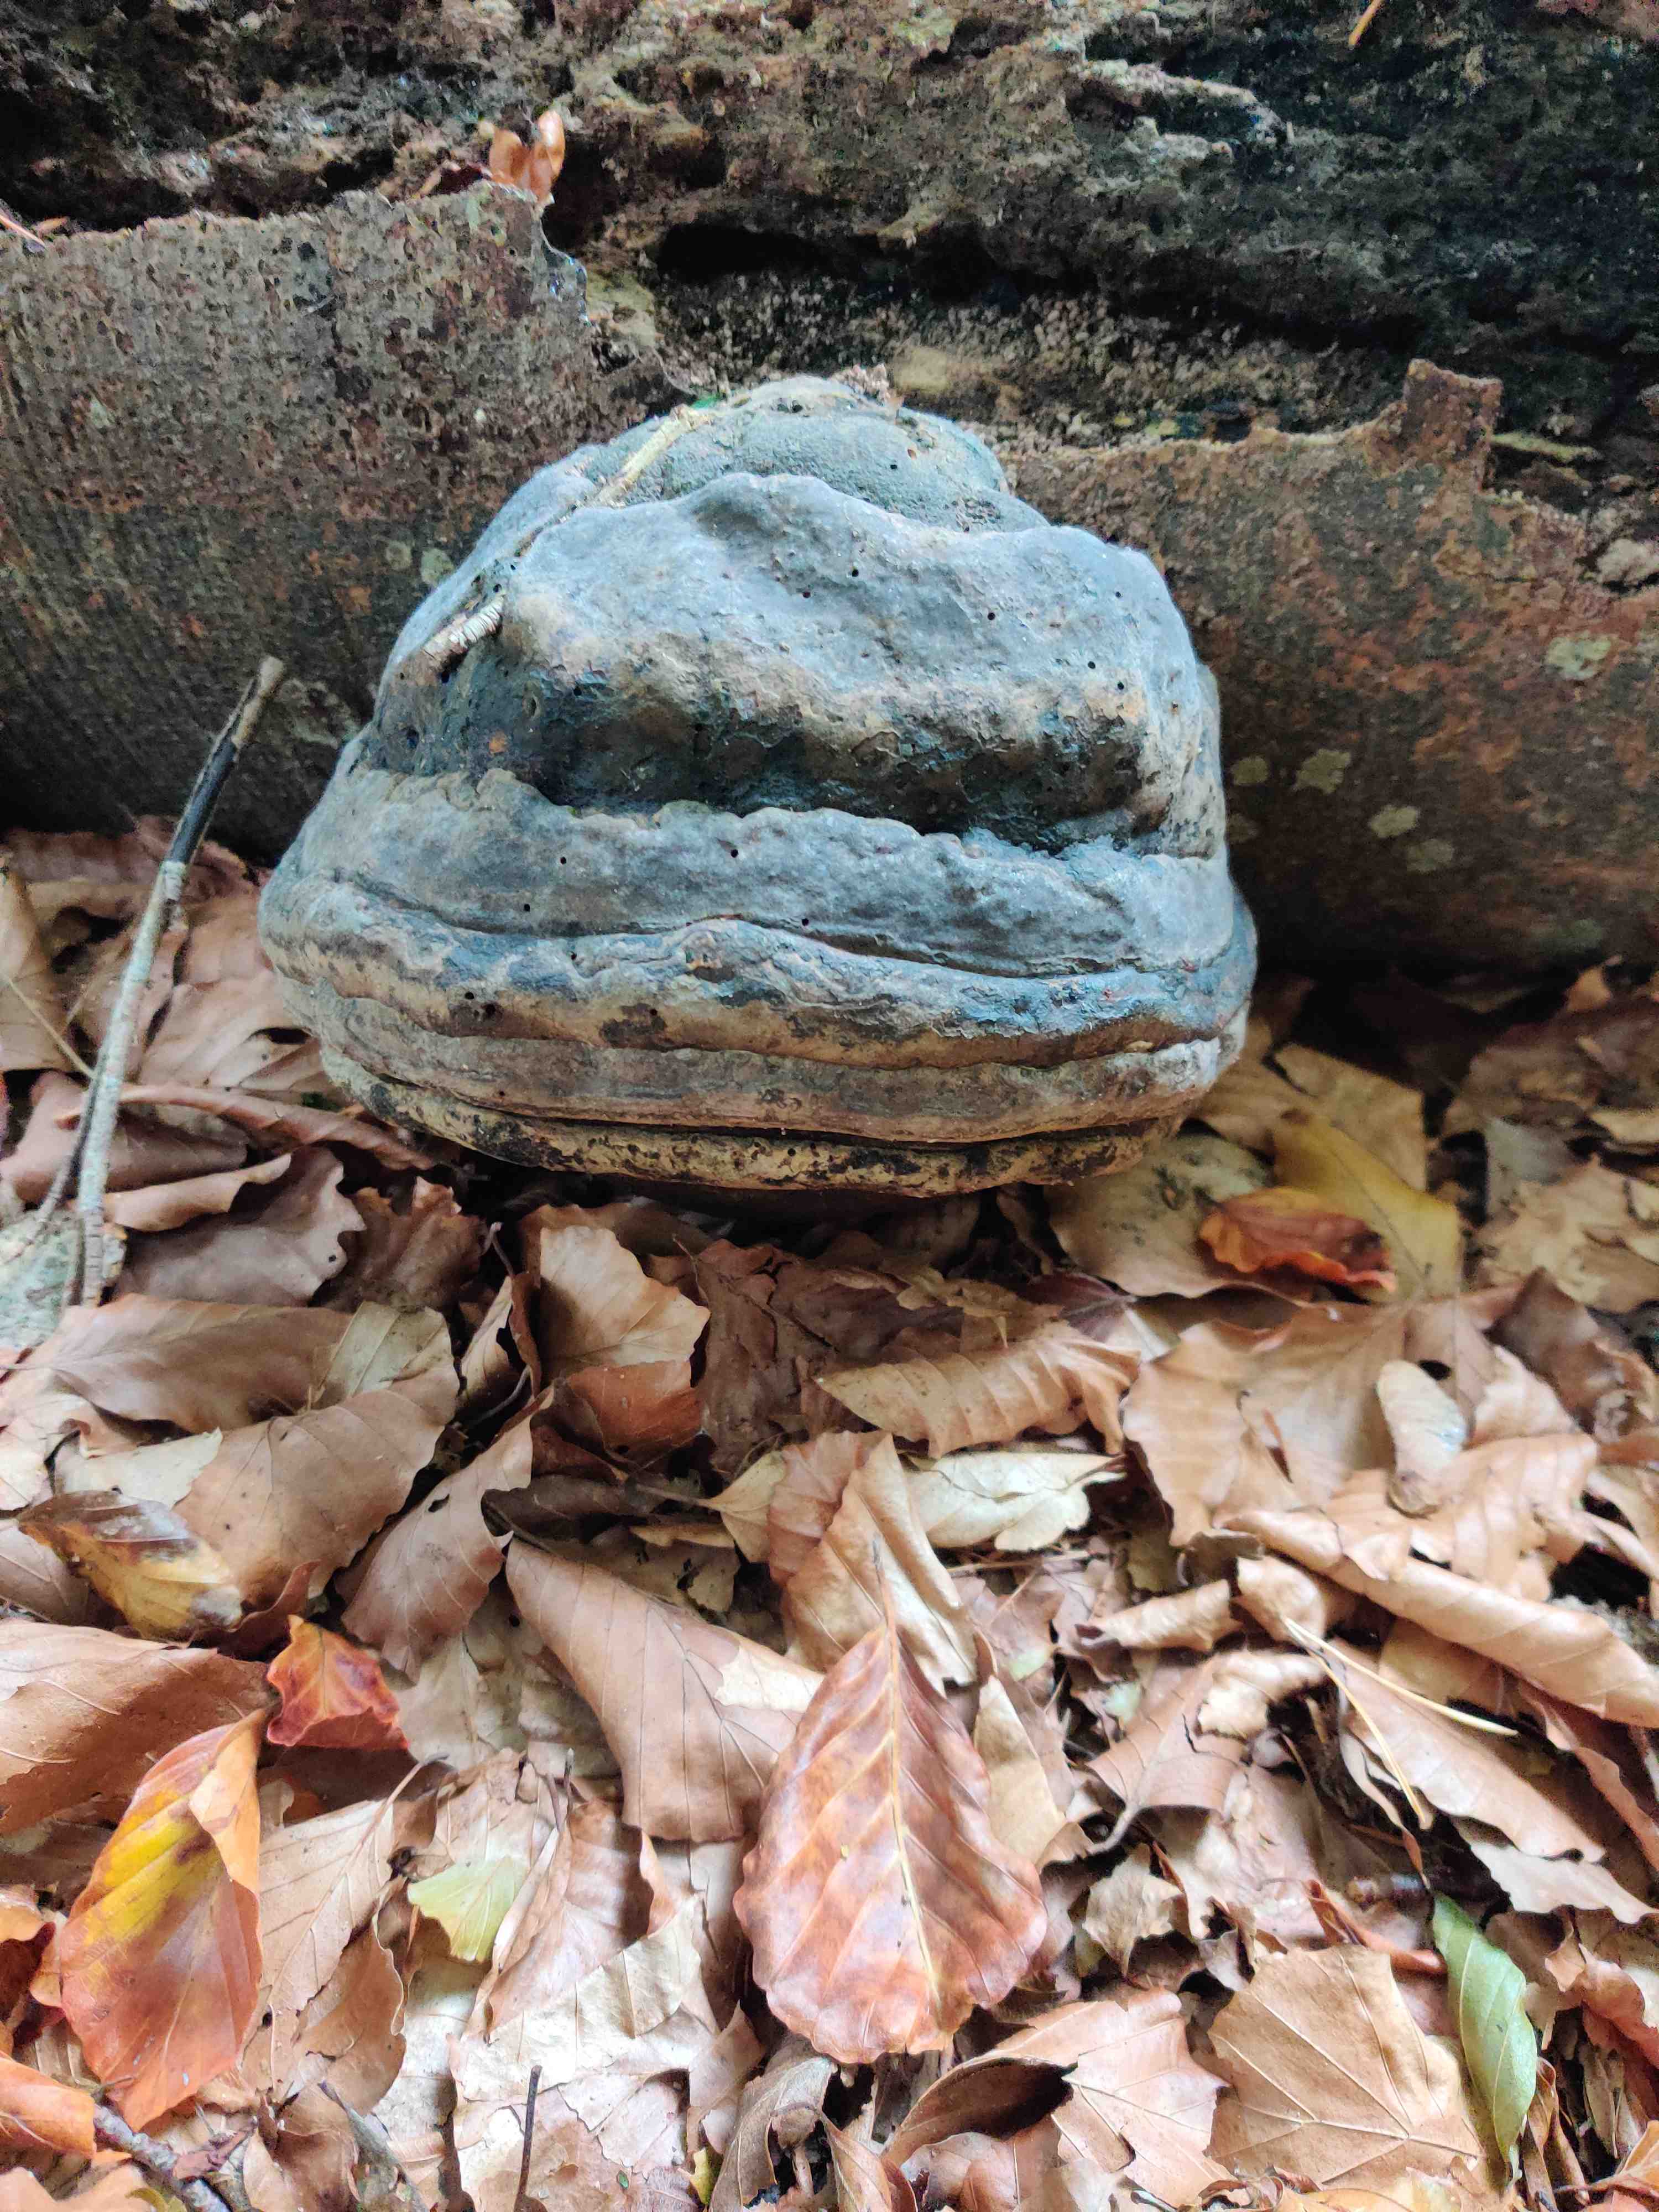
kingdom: Fungi
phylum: Basidiomycota
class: Agaricomycetes
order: Polyporales
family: Polyporaceae
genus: Fomes
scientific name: Fomes fomentarius
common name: tøndersvamp
